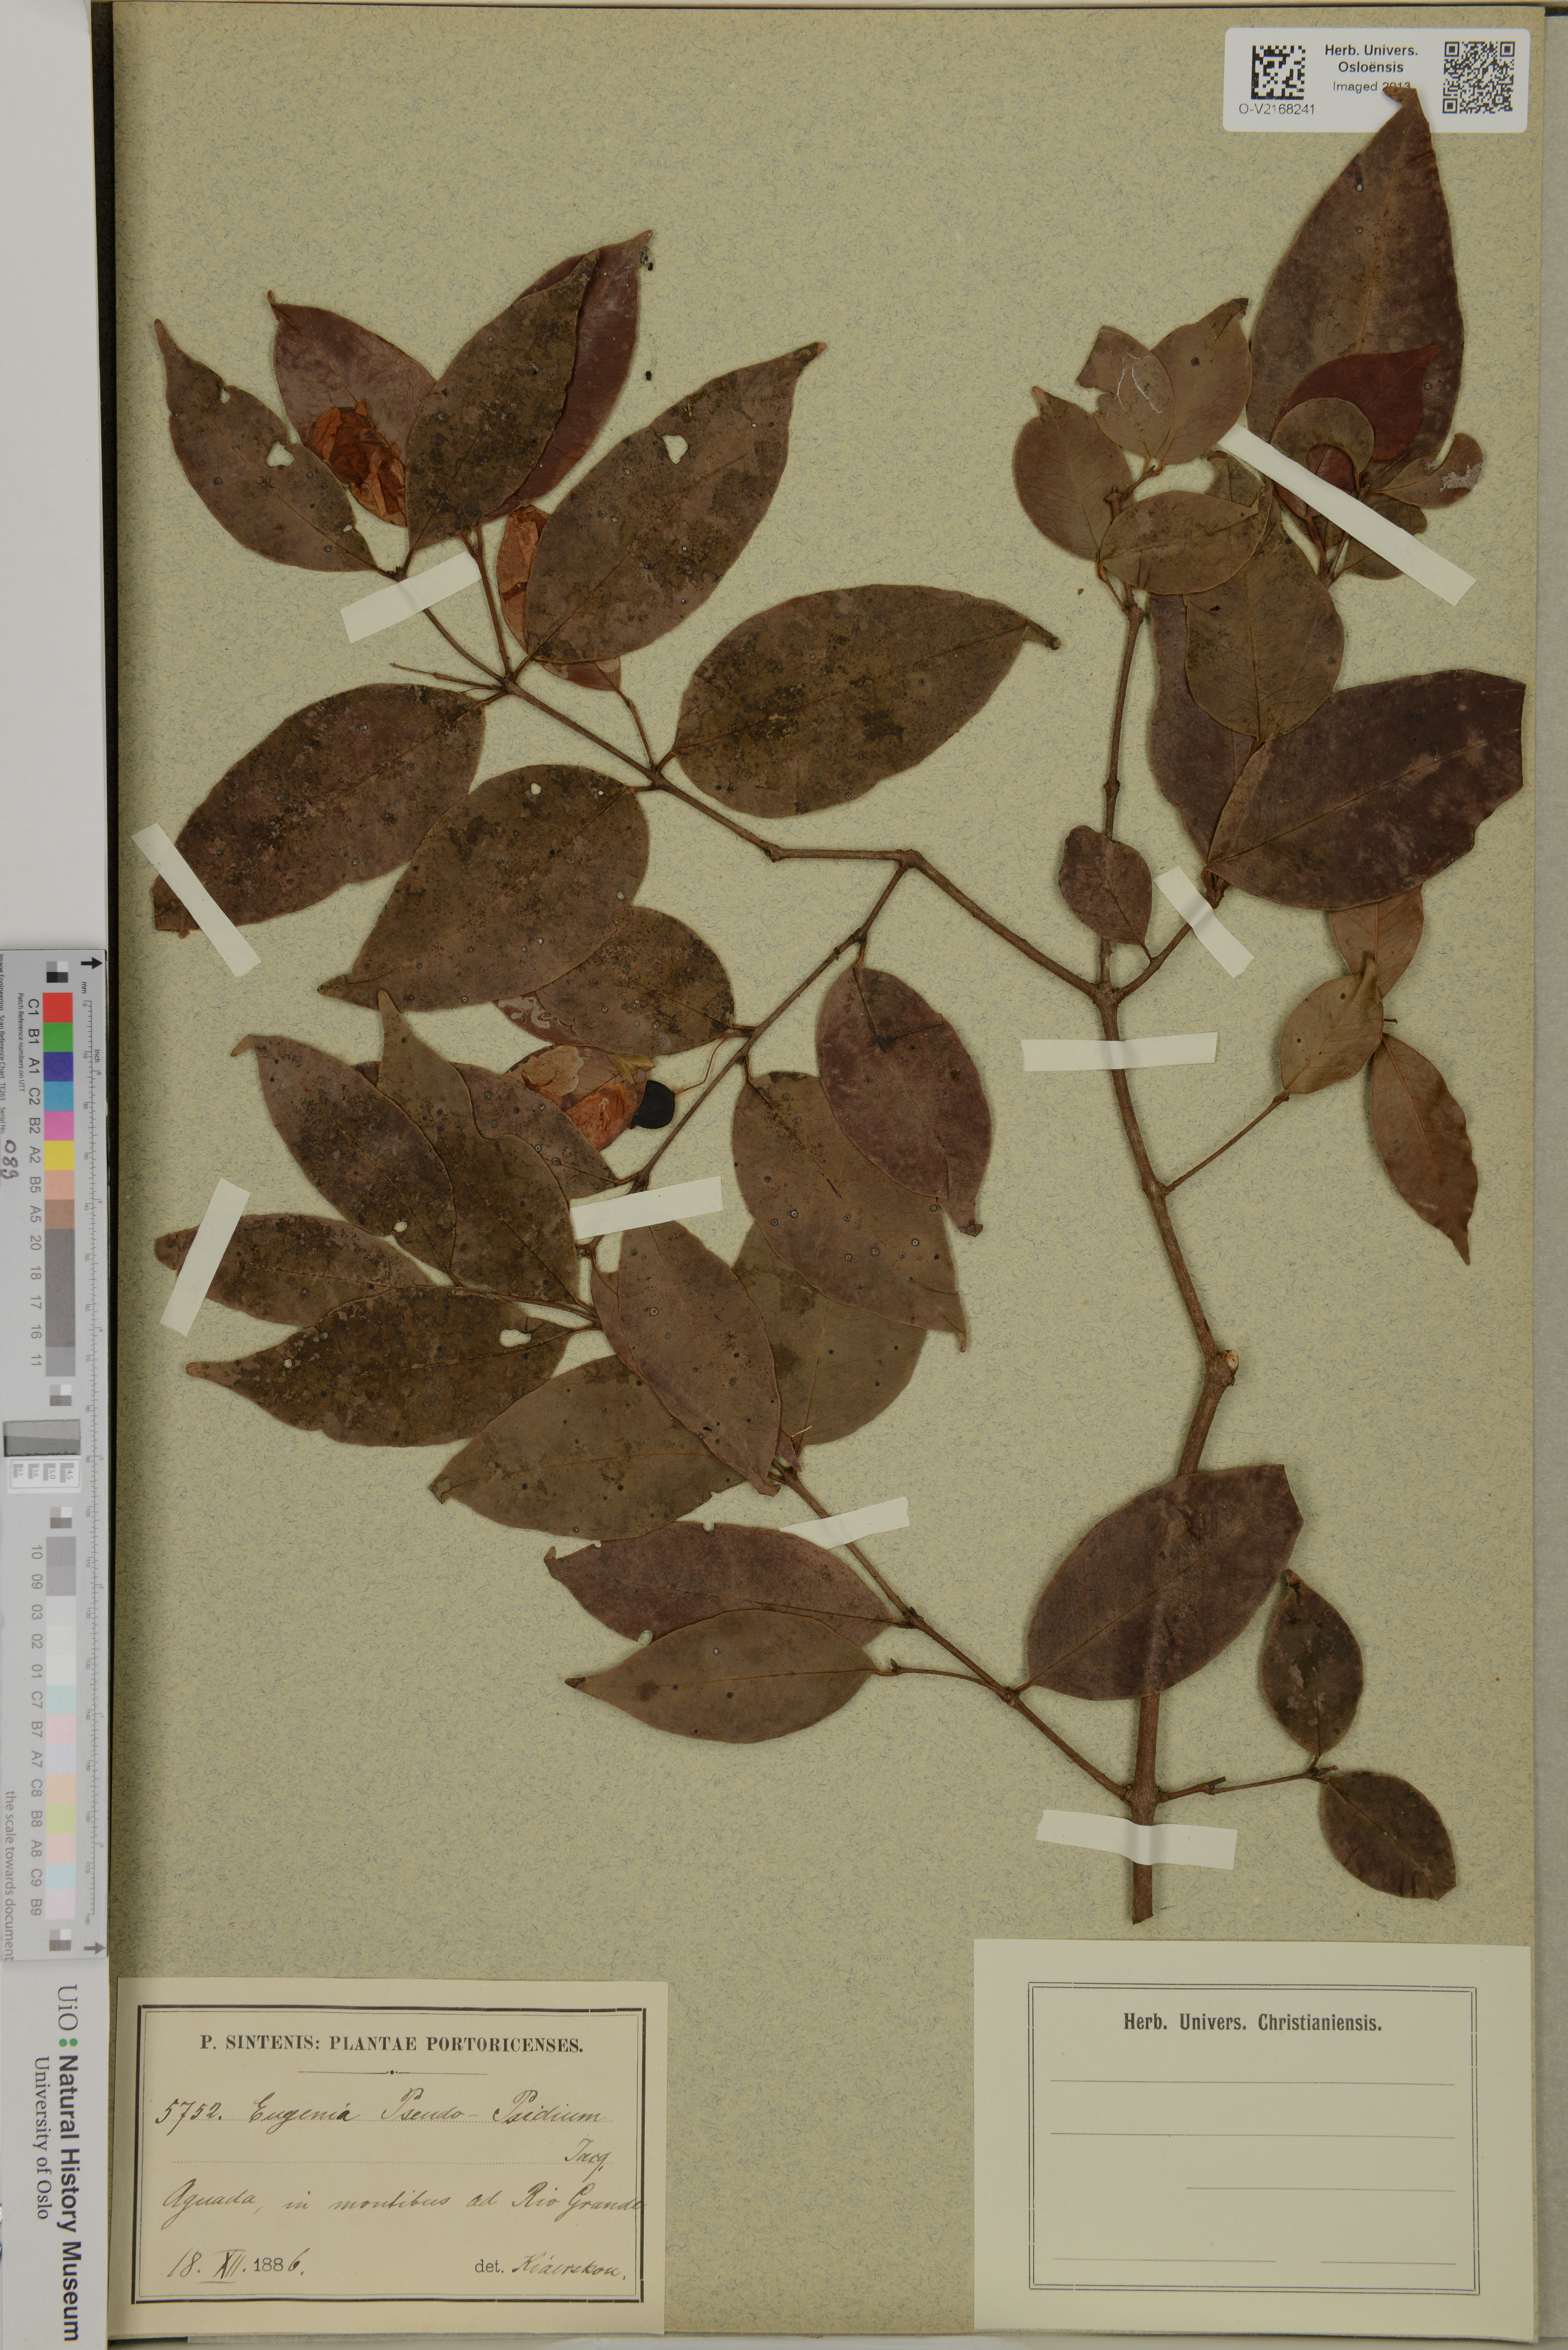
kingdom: Plantae
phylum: Tracheophyta
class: Magnoliopsida
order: Myrtales
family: Myrtaceae
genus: Eugenia
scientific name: Eugenia pseudopsidium
